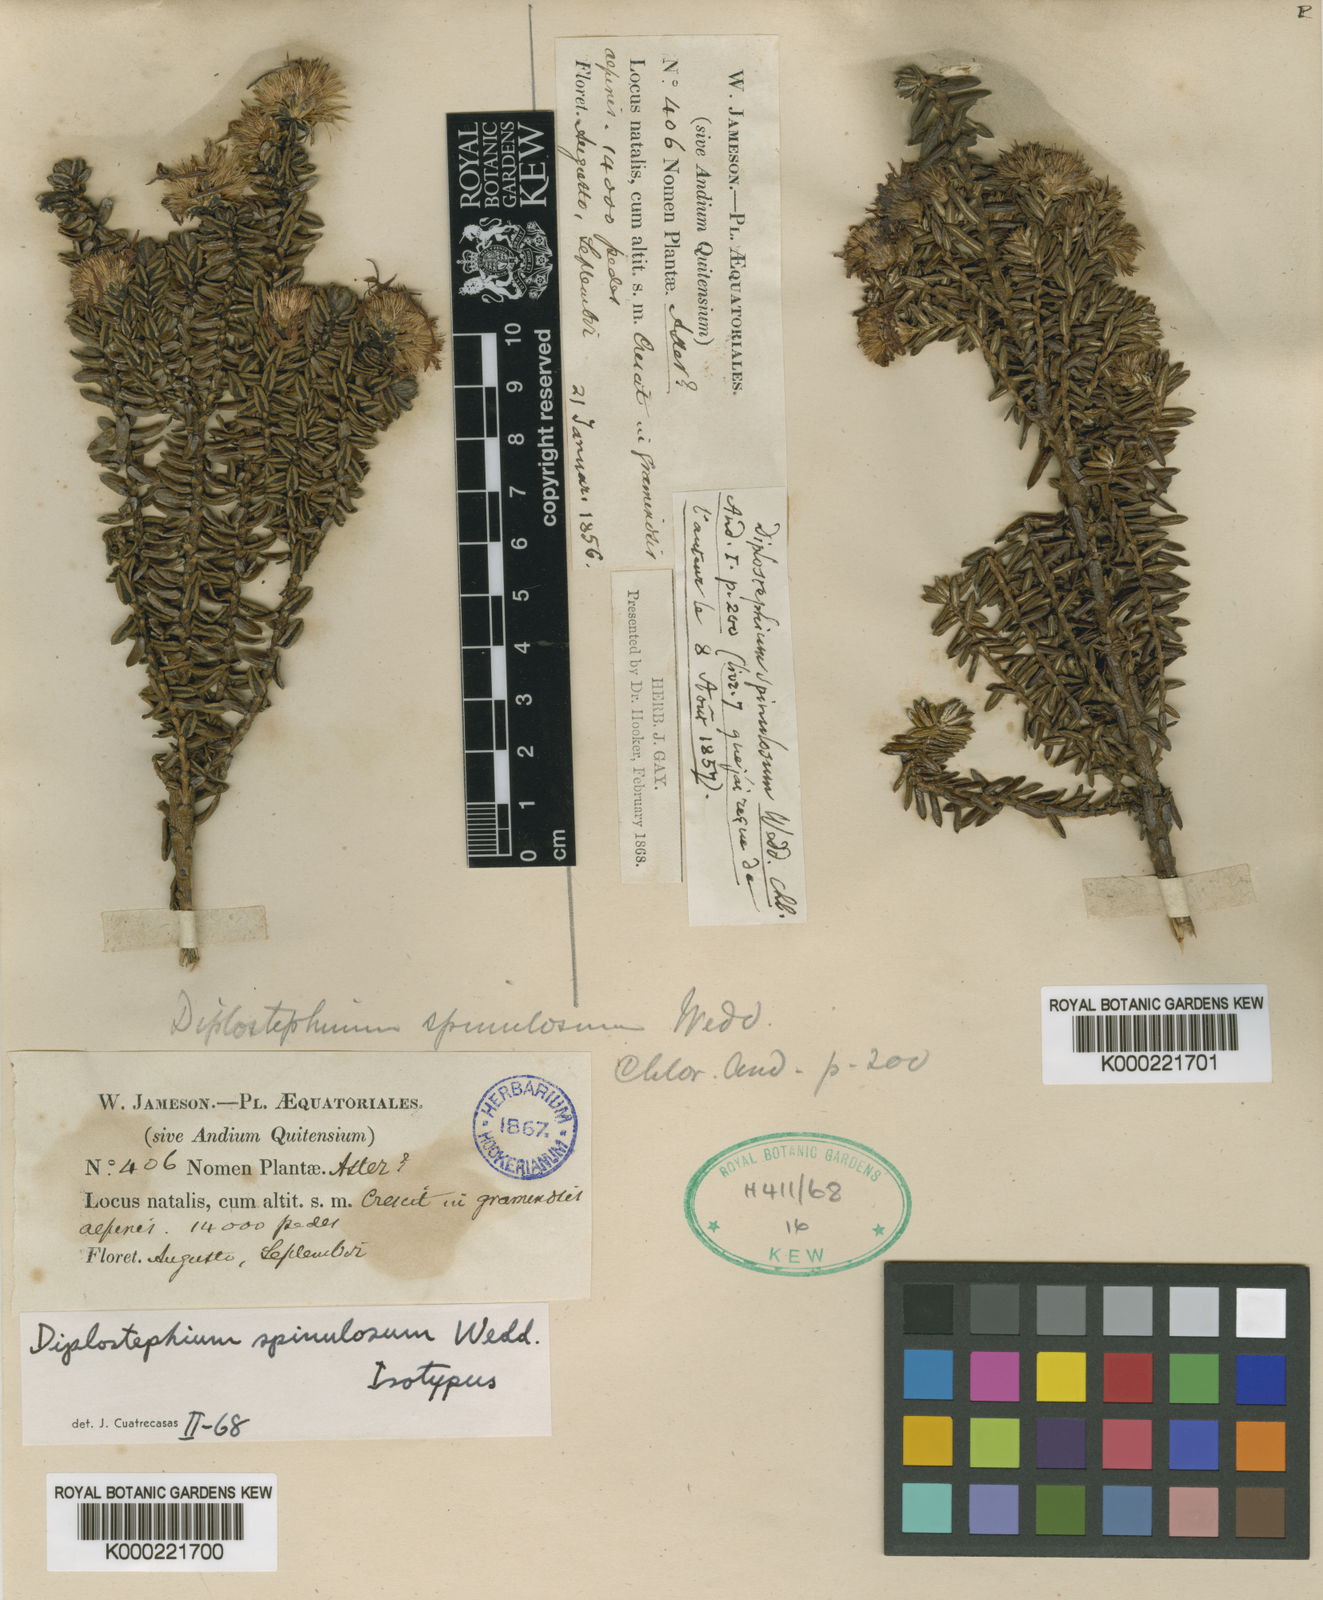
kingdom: Plantae
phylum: Tracheophyta
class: Magnoliopsida
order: Asterales
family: Asteraceae
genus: Diplostephium
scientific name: Diplostephium spinulosum
